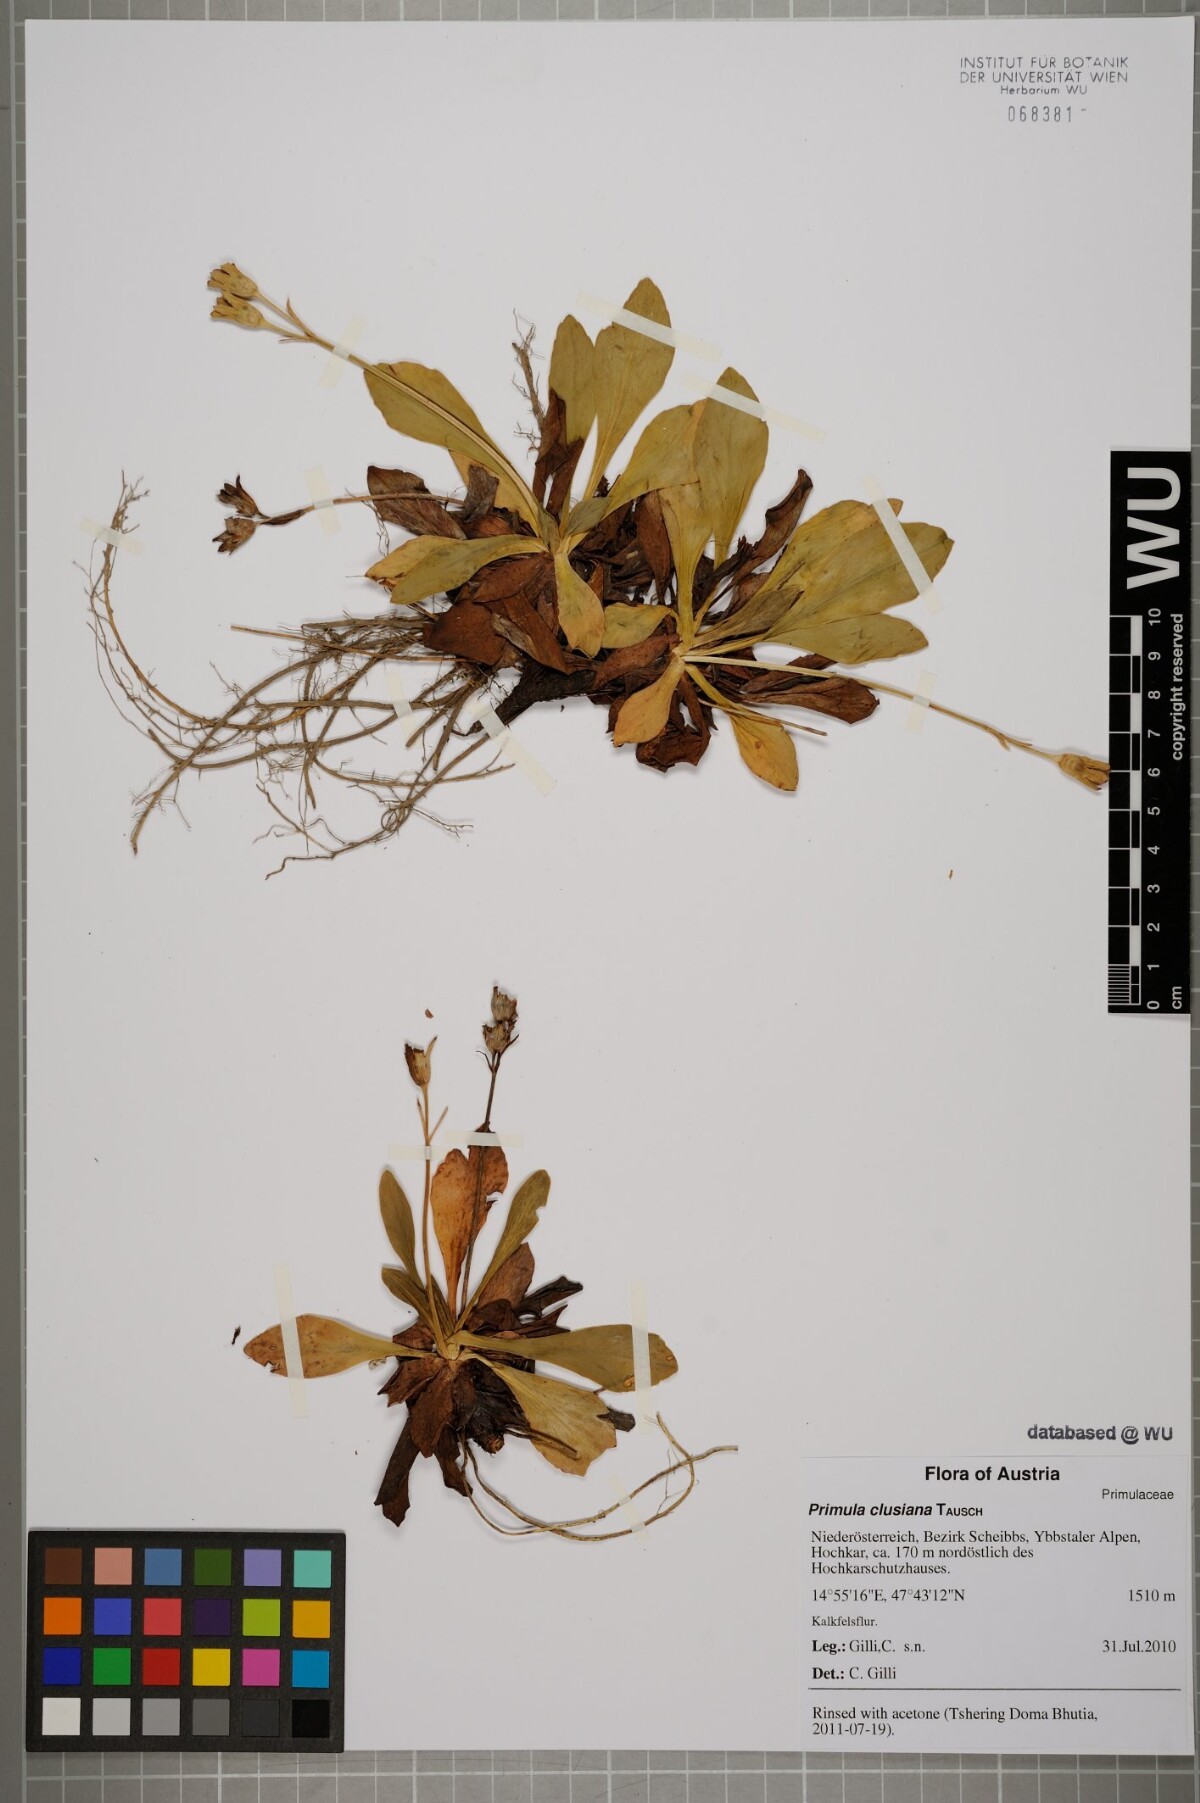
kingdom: Plantae
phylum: Tracheophyta
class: Magnoliopsida
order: Ericales
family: Primulaceae
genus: Primula
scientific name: Primula clusiana
